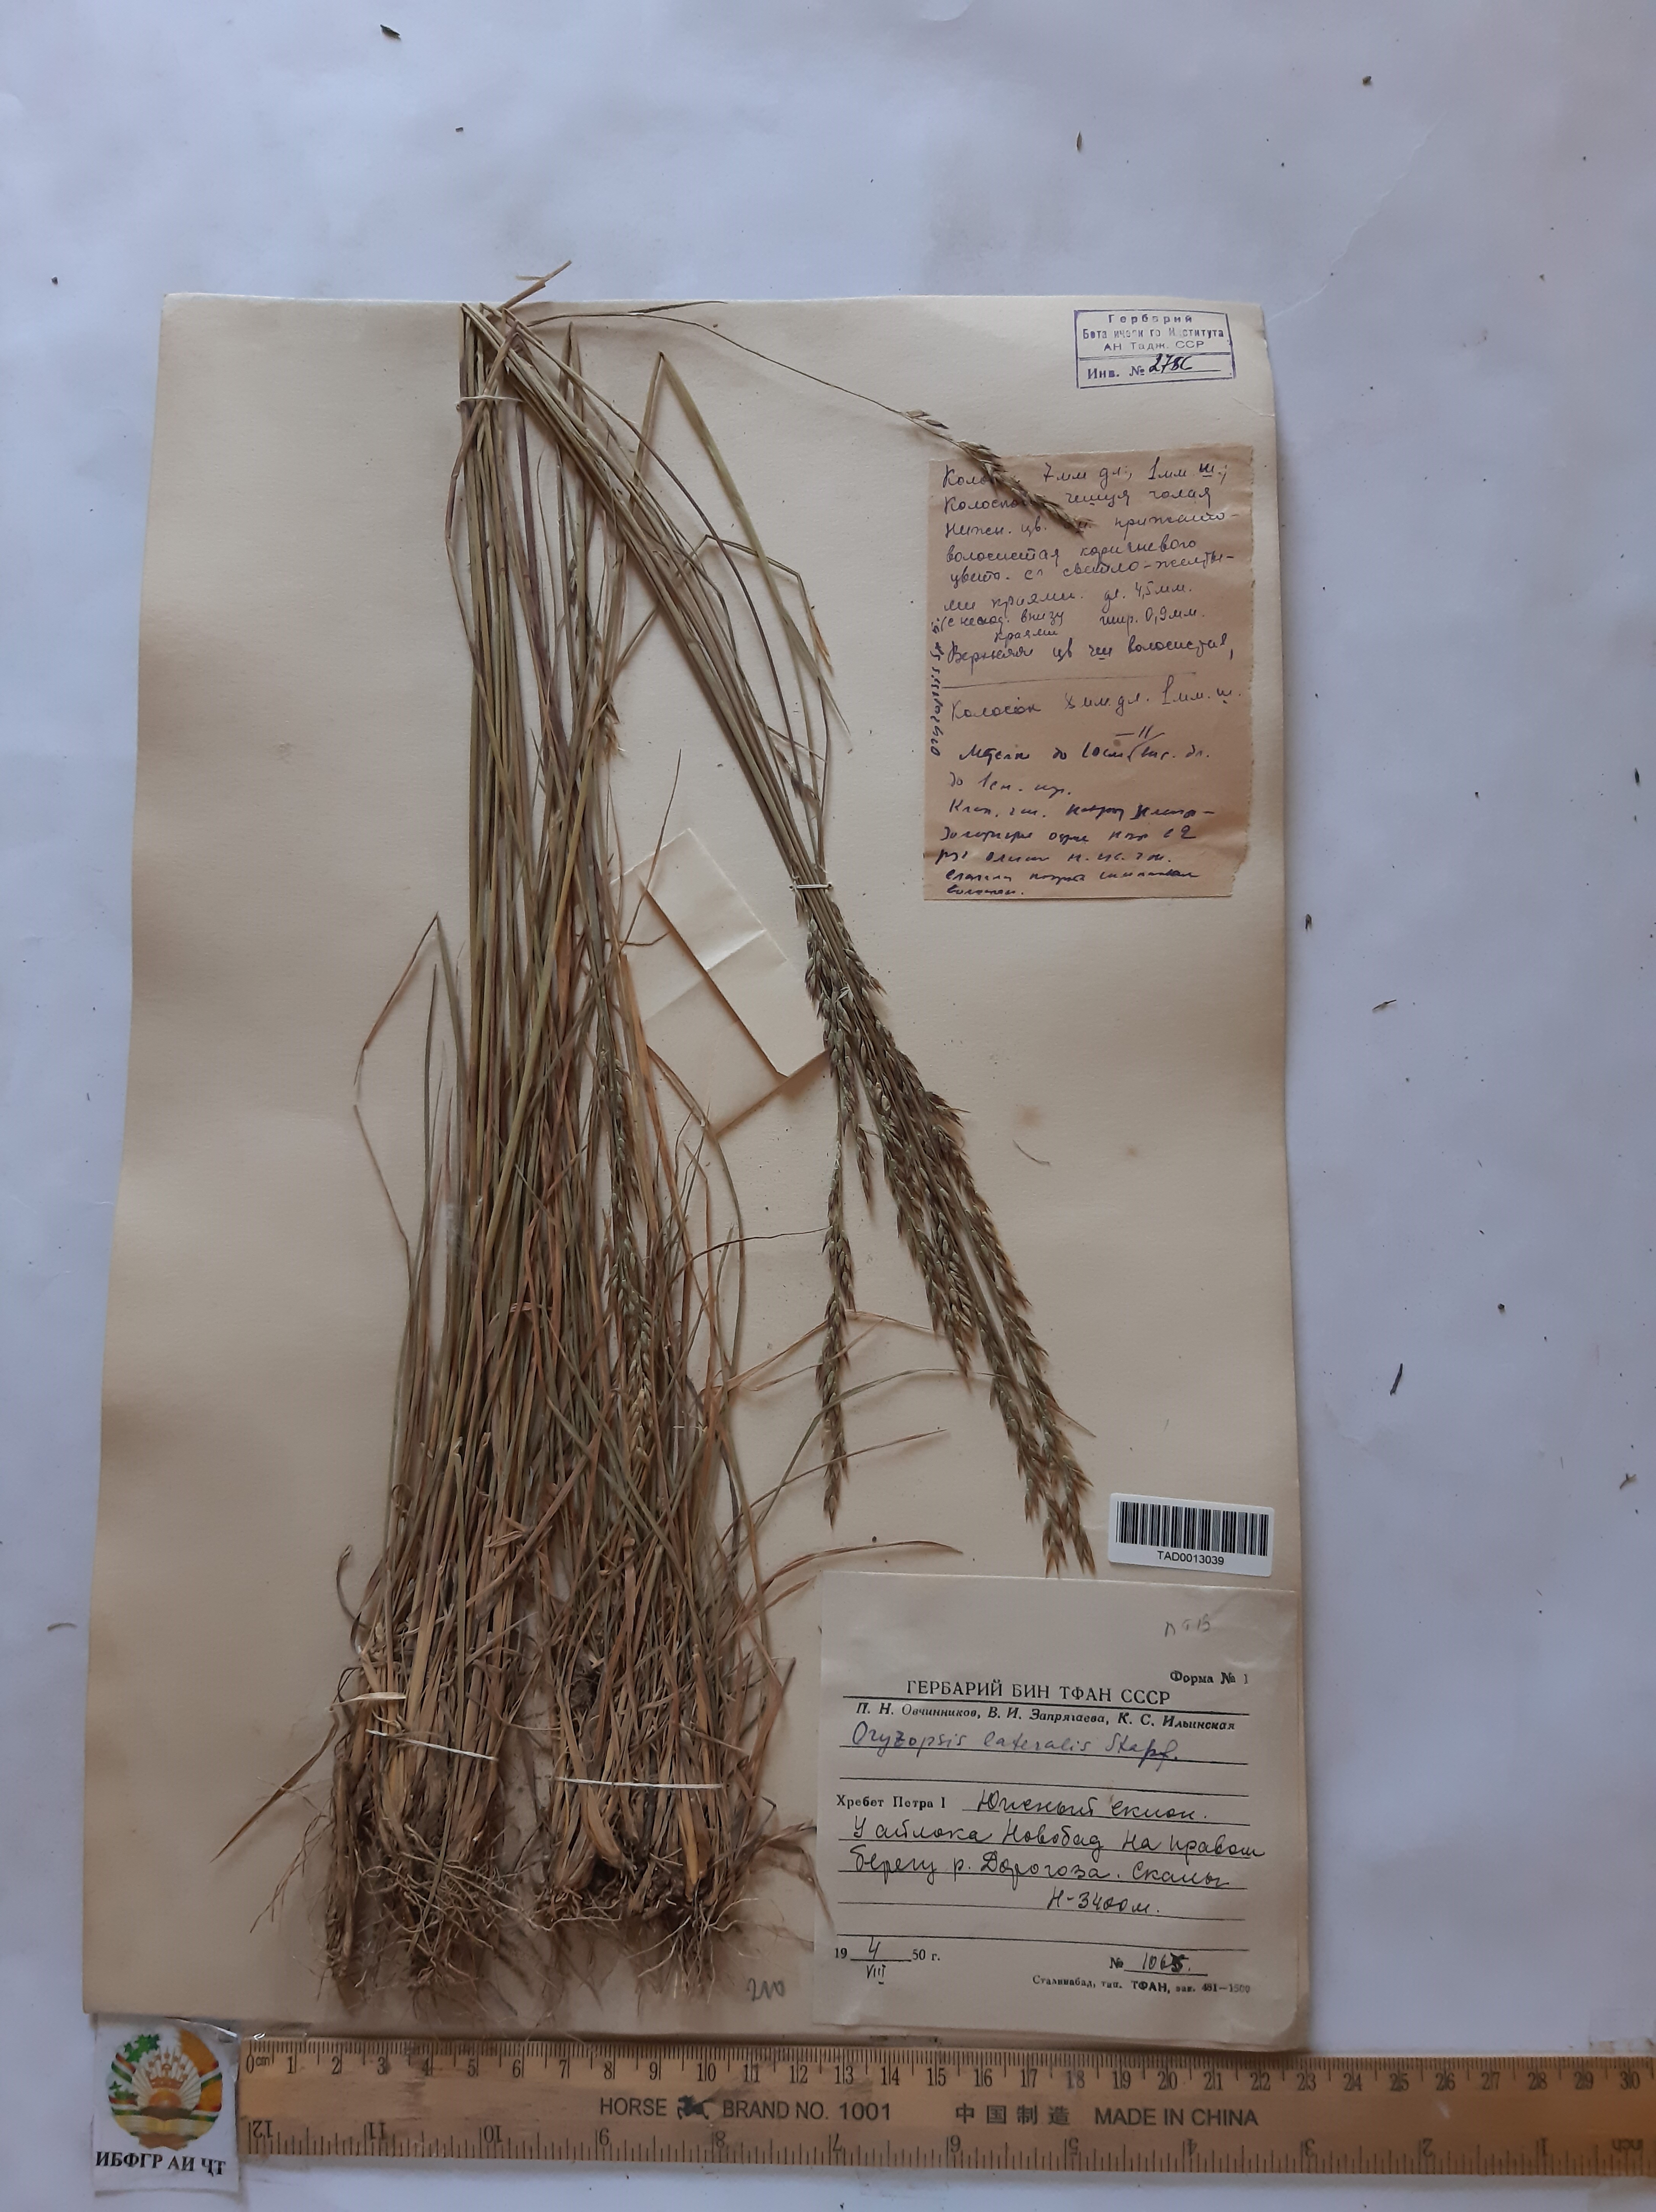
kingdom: Plantae
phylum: Tracheophyta
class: Liliopsida
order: Poales
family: Poaceae
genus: Piptatherum
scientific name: Piptatherum laterale
